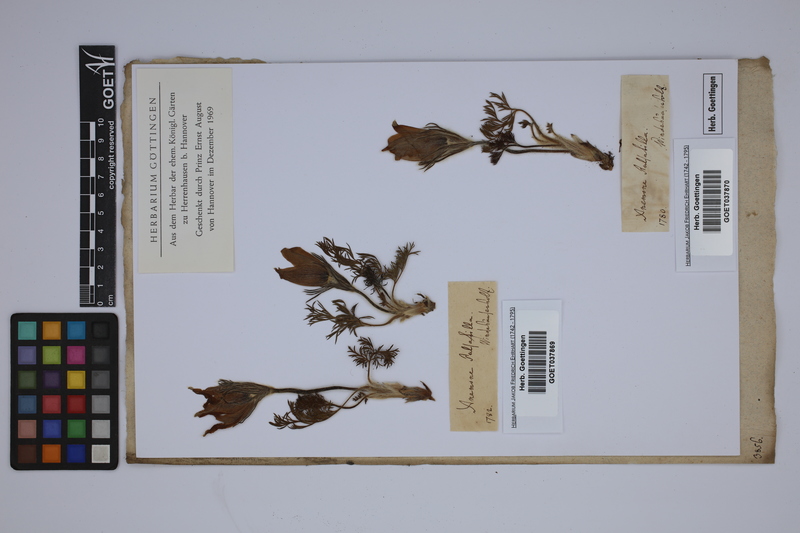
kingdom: Plantae
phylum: Tracheophyta
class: Magnoliopsida
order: Ranunculales
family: Ranunculaceae
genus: Pulsatilla
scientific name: Pulsatilla vulgaris
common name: Pasqueflower
